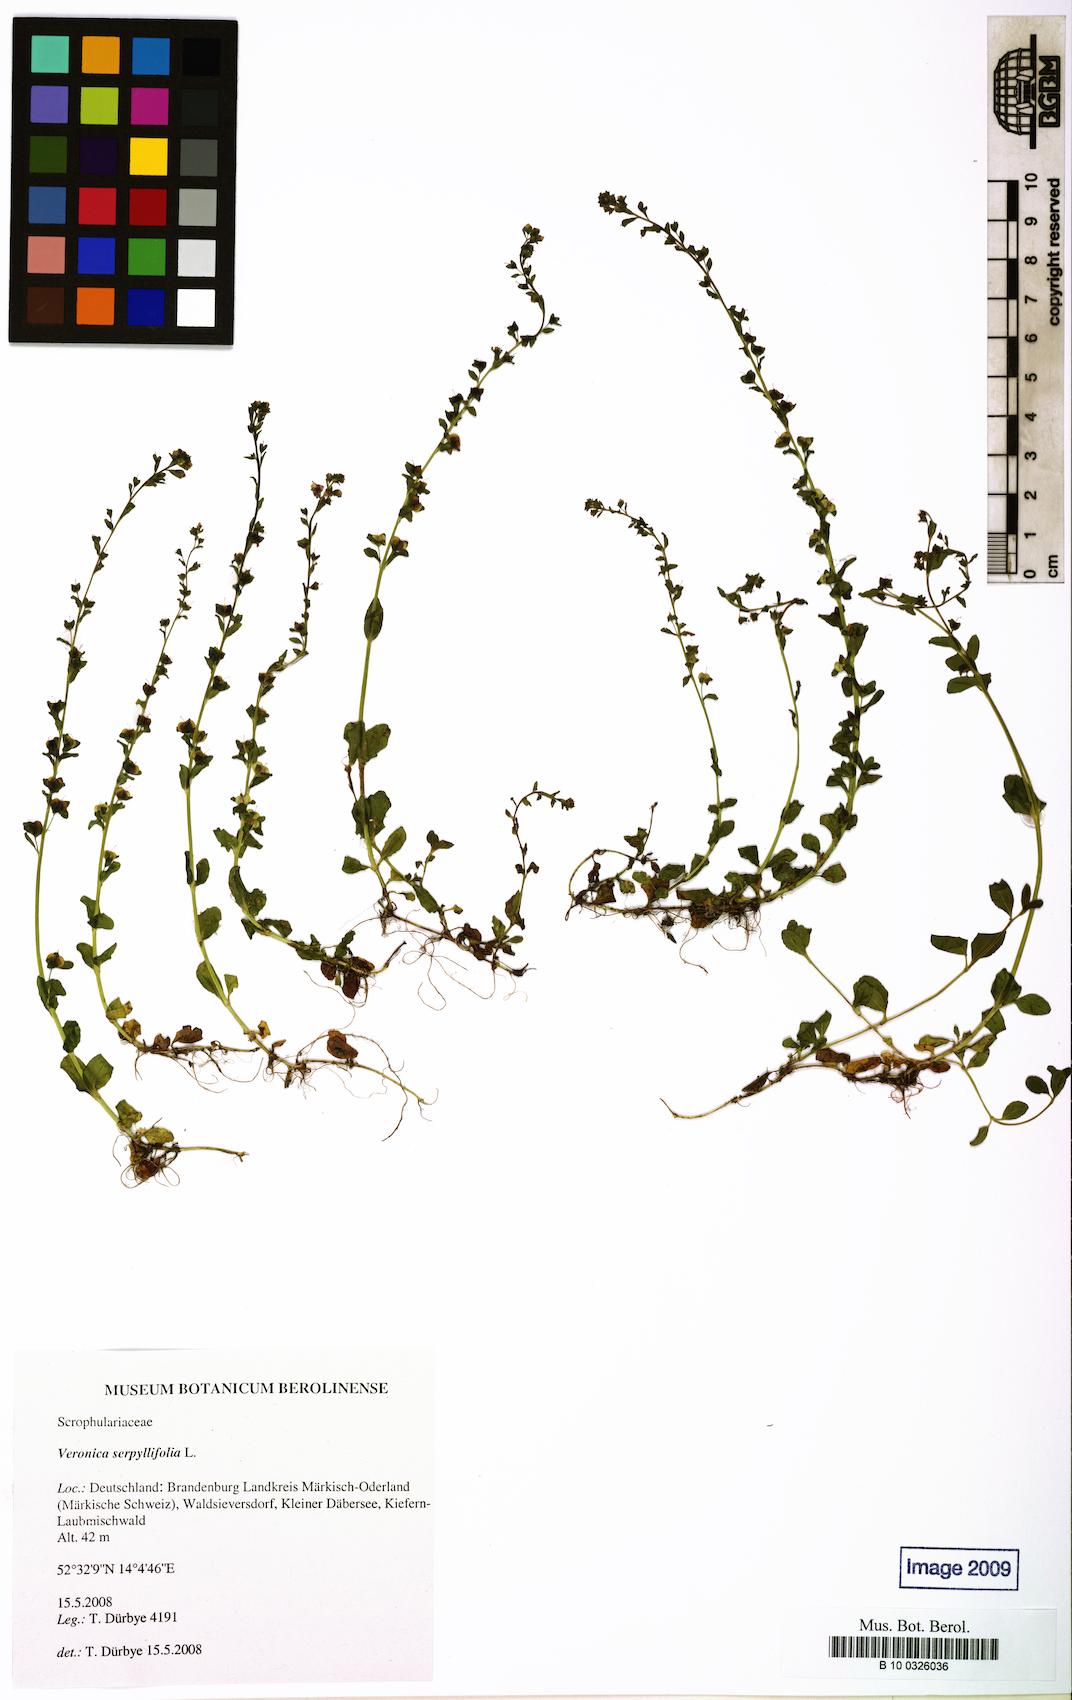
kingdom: Plantae
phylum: Tracheophyta
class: Magnoliopsida
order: Lamiales
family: Plantaginaceae
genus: Veronica
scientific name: Veronica serpyllifolia
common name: Thyme-leaved speedwell
